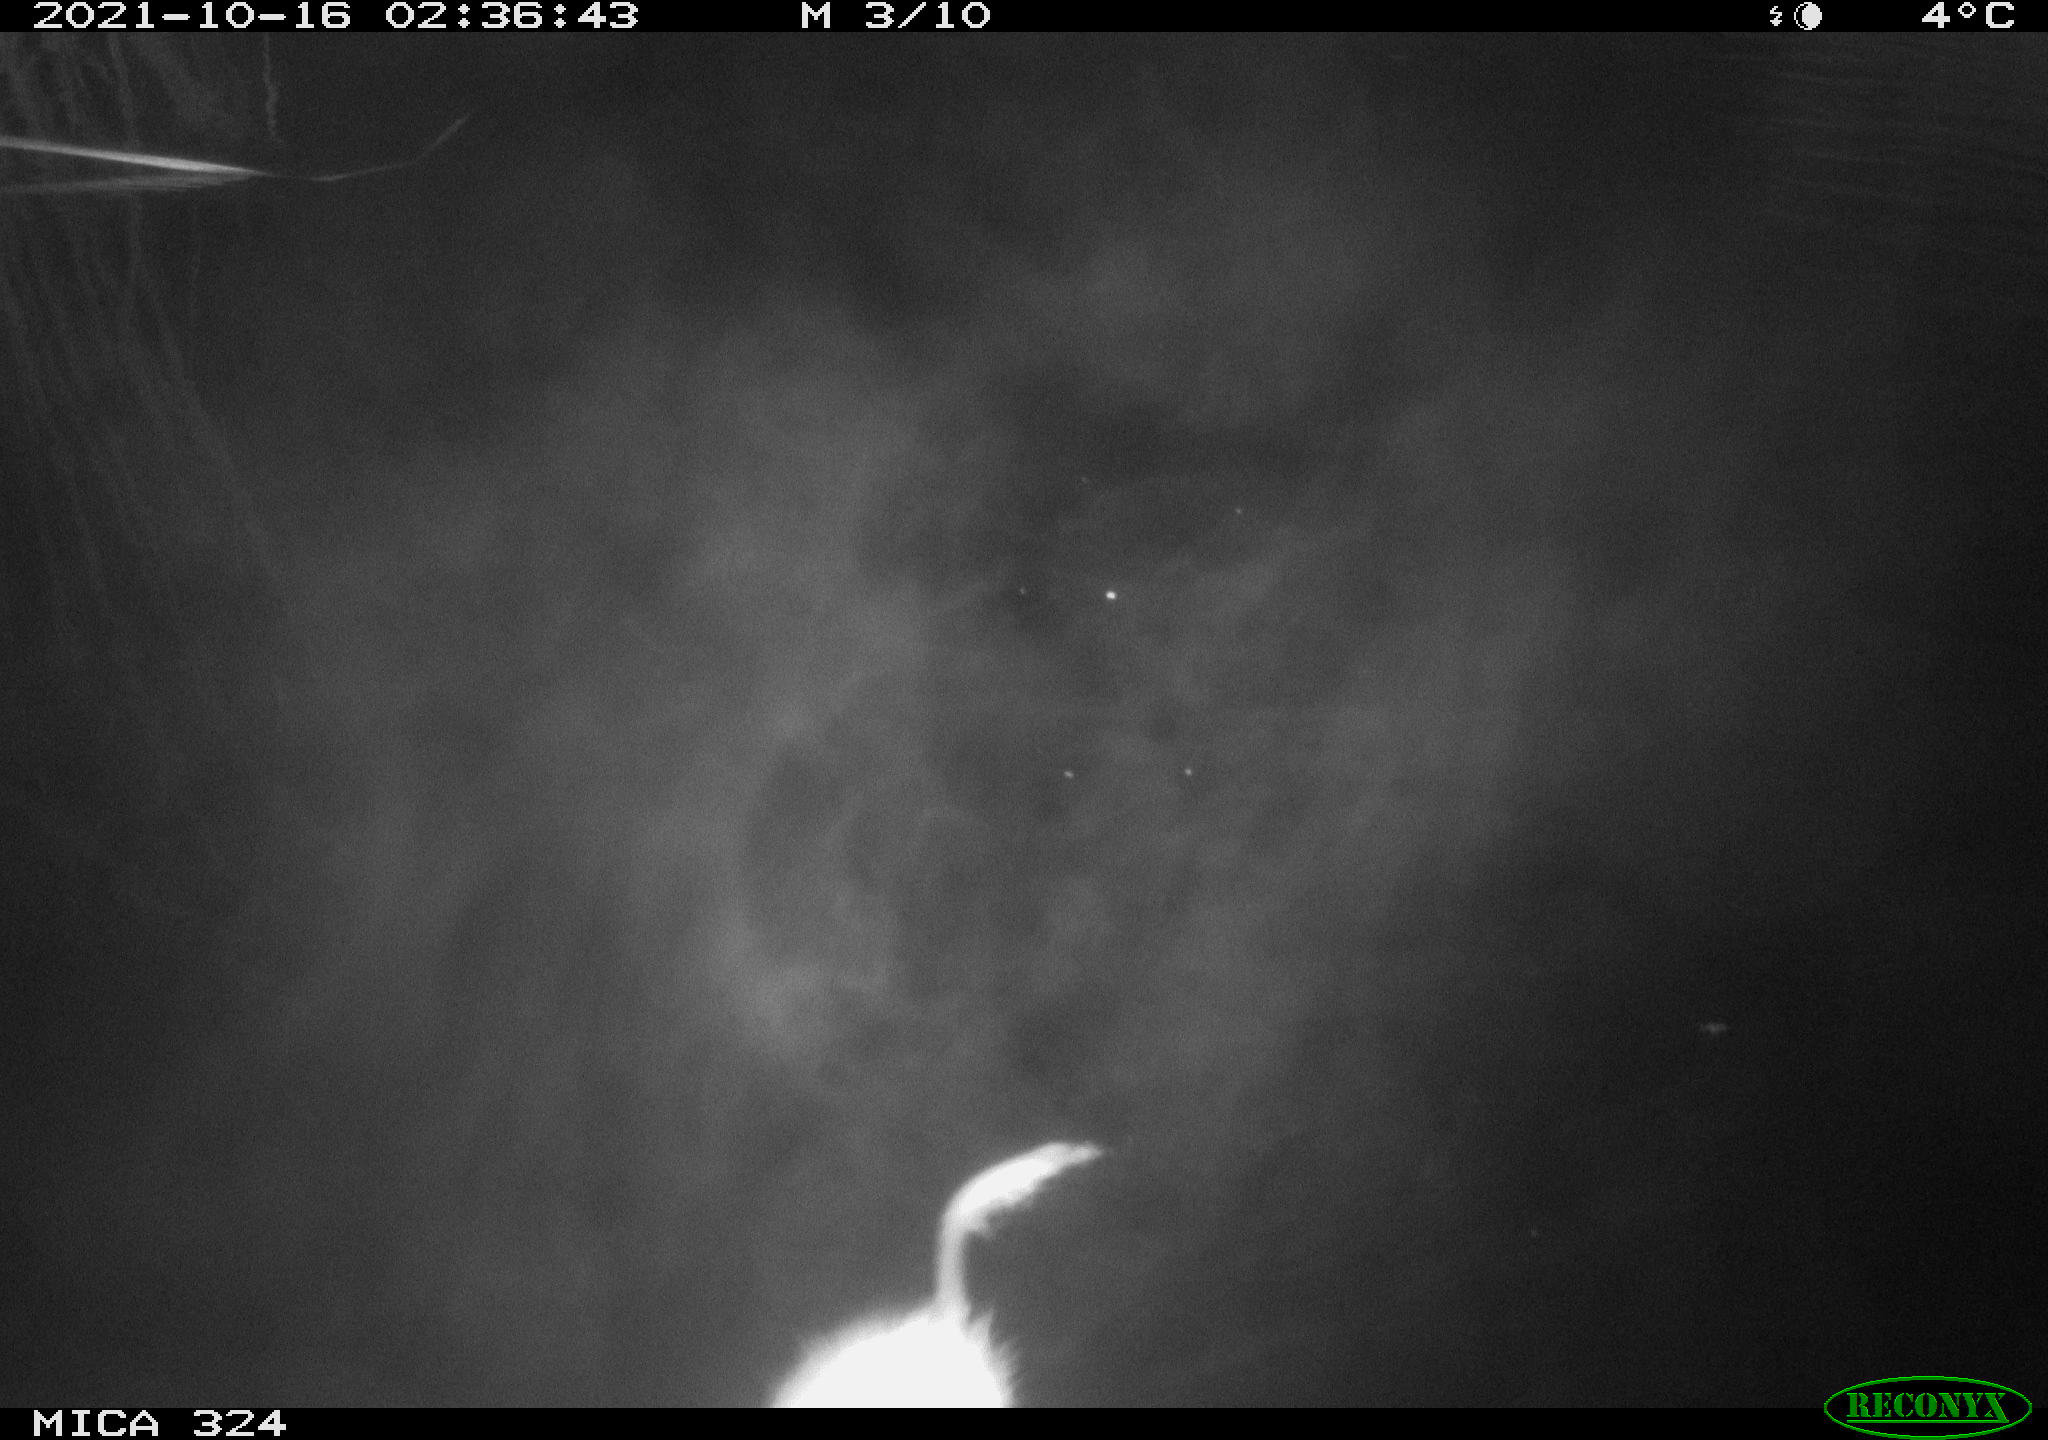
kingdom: Animalia
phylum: Chordata
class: Mammalia
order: Rodentia
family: Cricetidae
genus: Ondatra
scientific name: Ondatra zibethicus
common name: Muskrat
